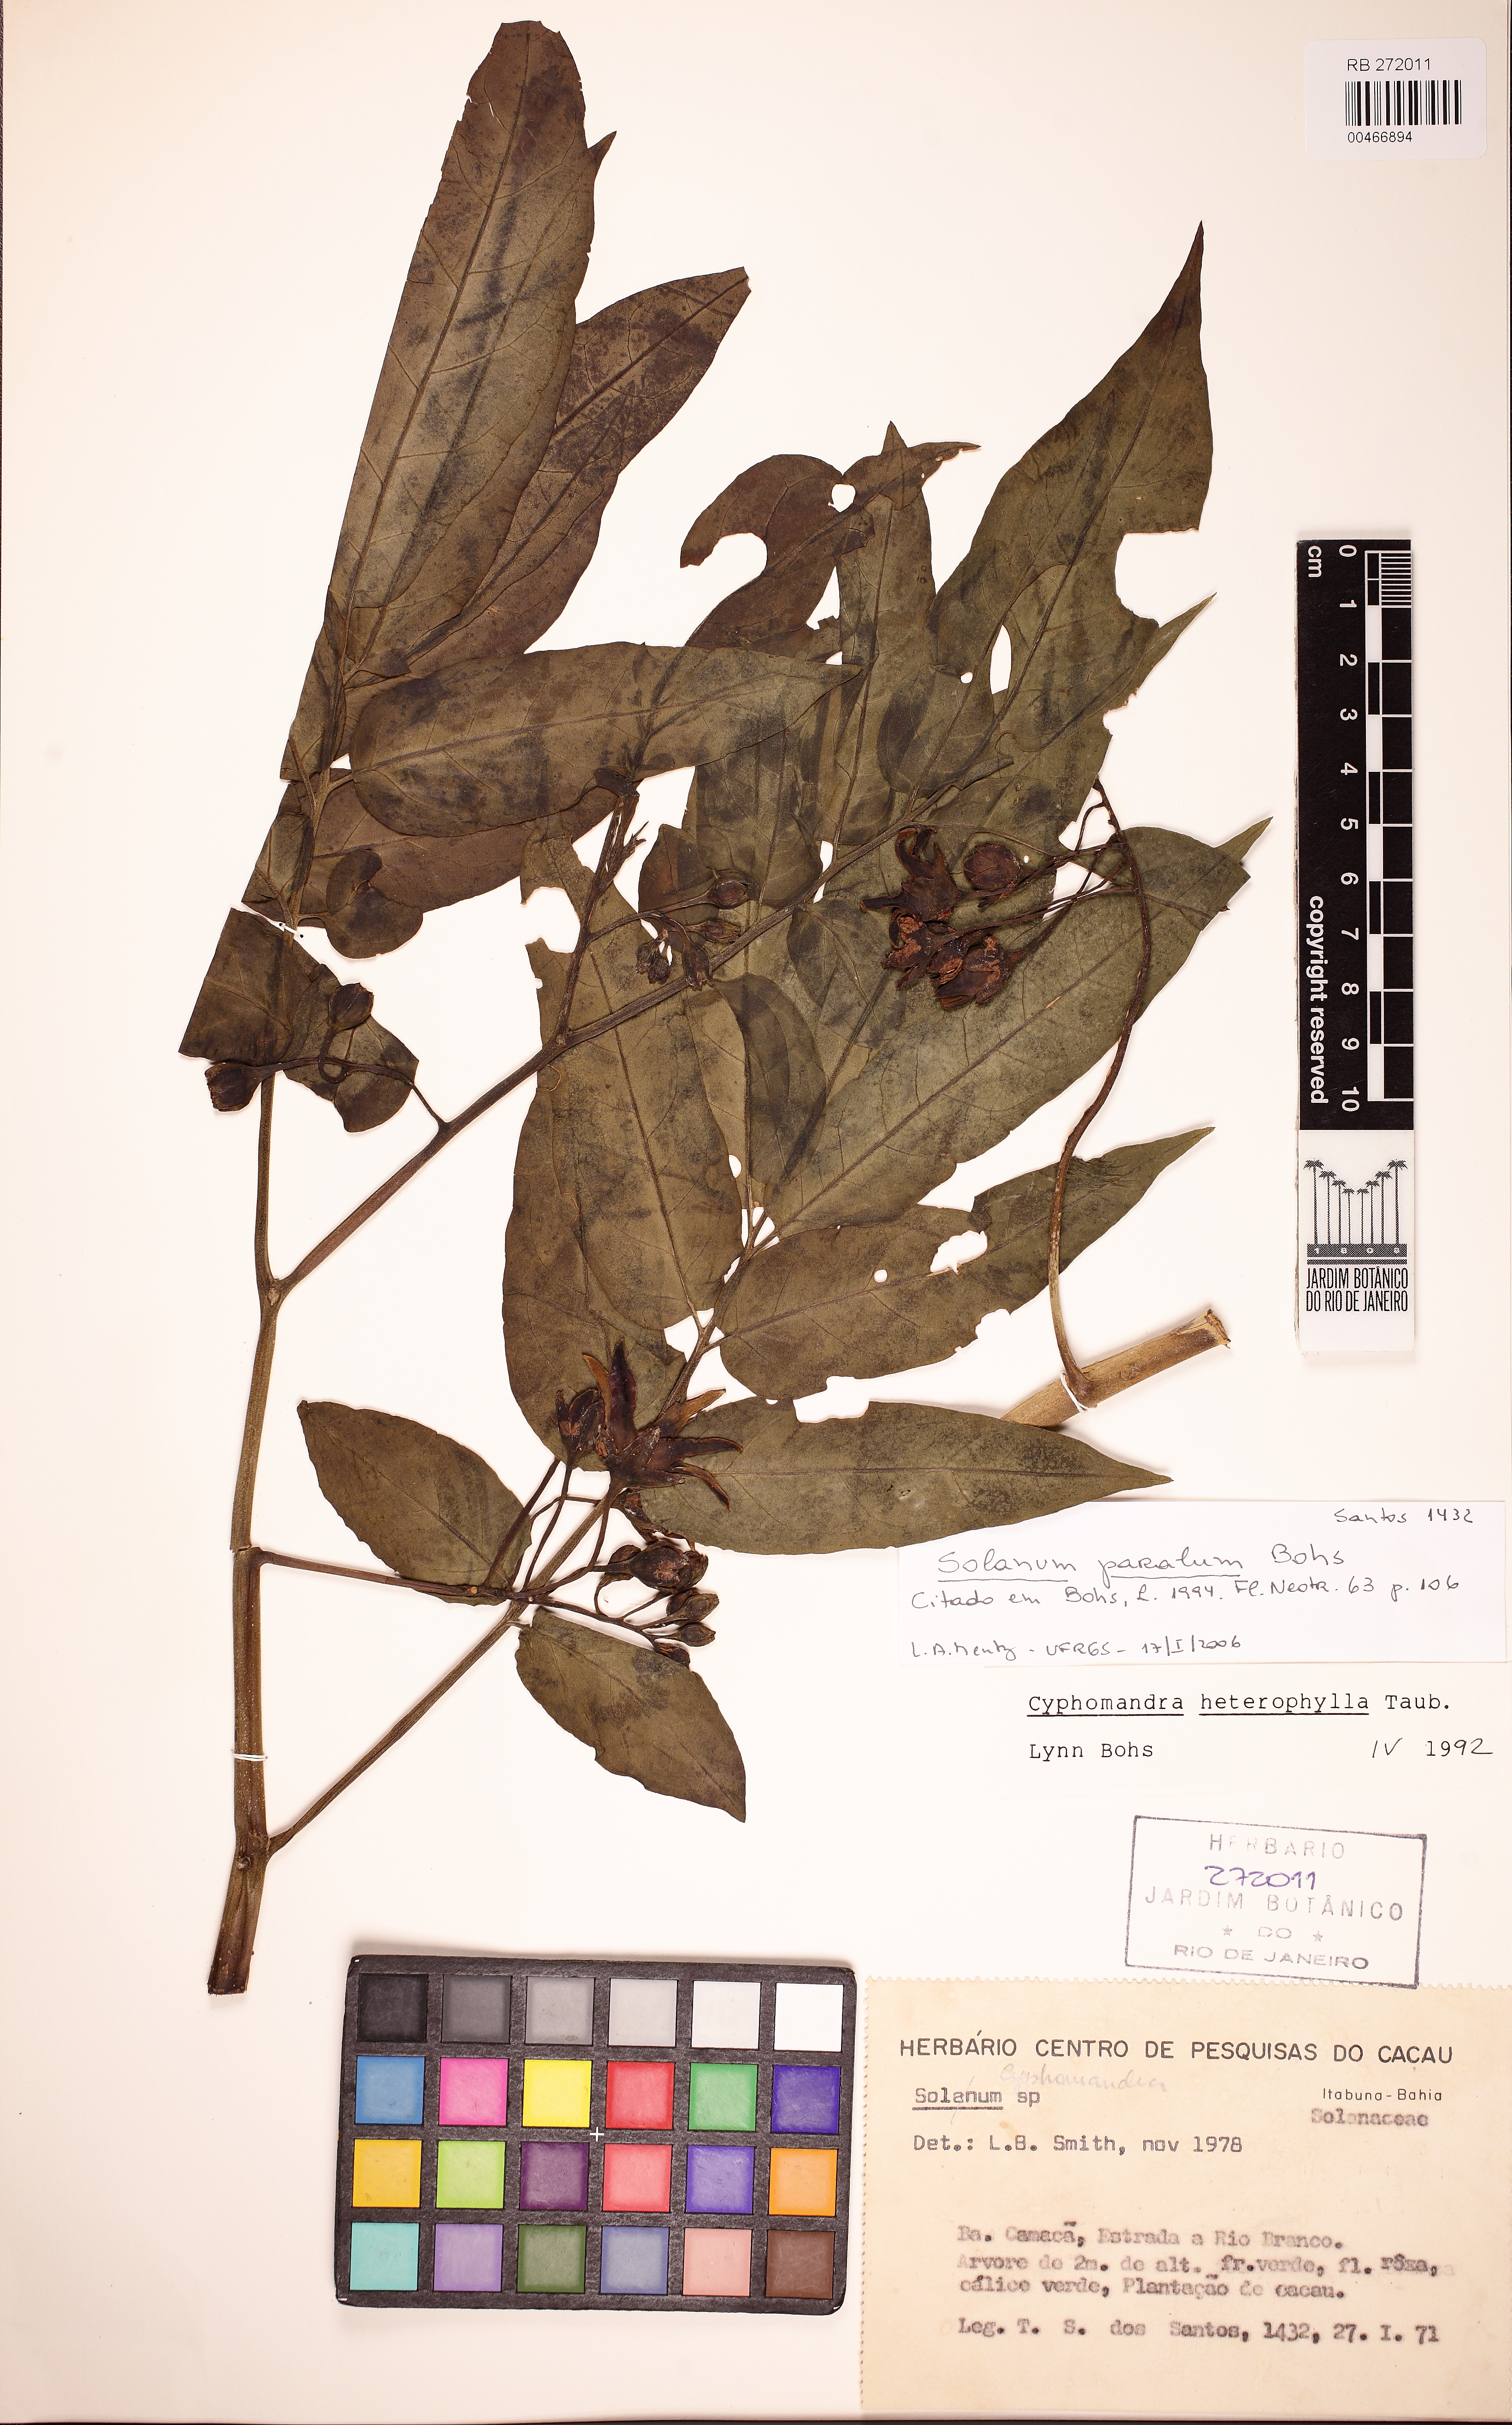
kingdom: Plantae
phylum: Tracheophyta
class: Magnoliopsida
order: Solanales
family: Solanaceae
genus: Solanum
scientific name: Solanum paralum
